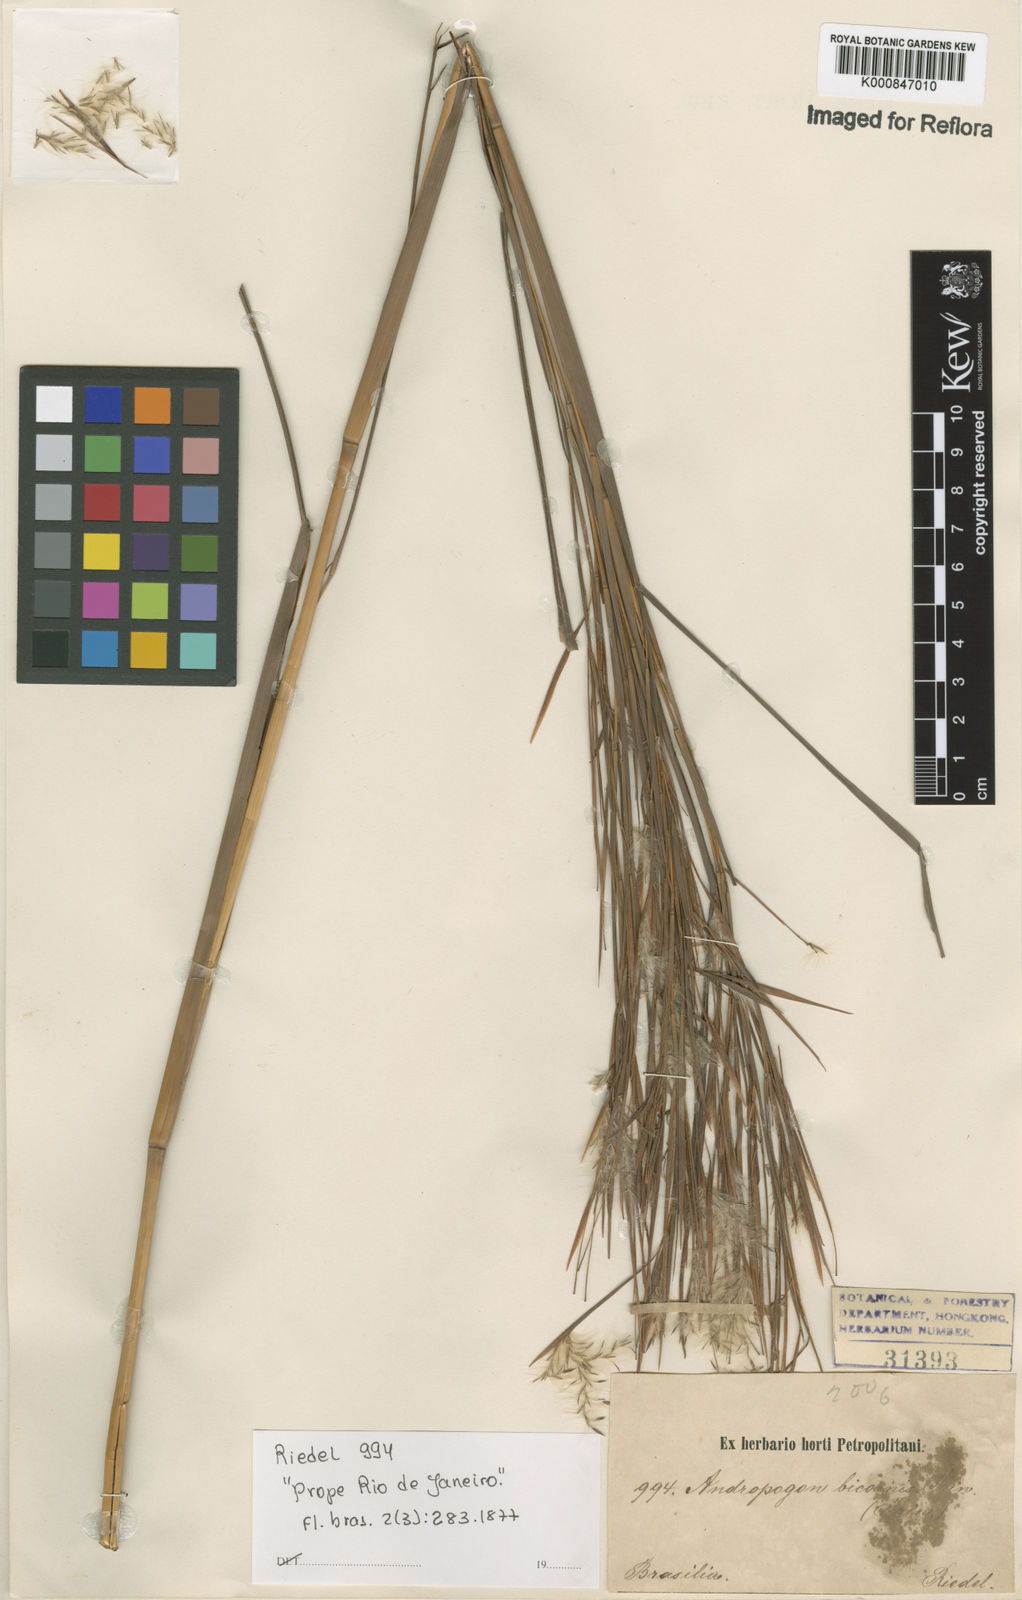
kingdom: Plantae
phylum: Tracheophyta
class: Liliopsida
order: Poales
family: Poaceae
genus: Andropogon
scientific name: Andropogon
